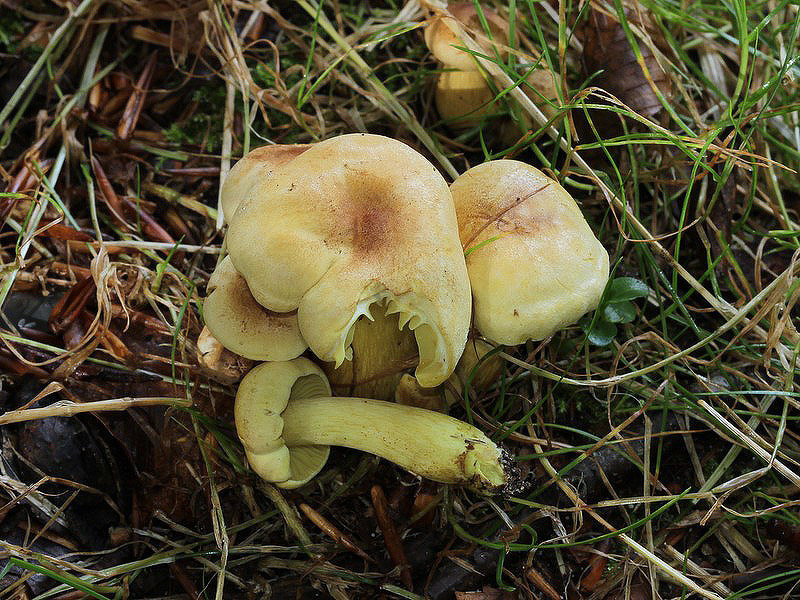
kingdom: Fungi
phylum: Basidiomycota
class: Agaricomycetes
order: Agaricales
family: Tricholomataceae
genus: Tricholoma
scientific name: Tricholoma sulphureum
